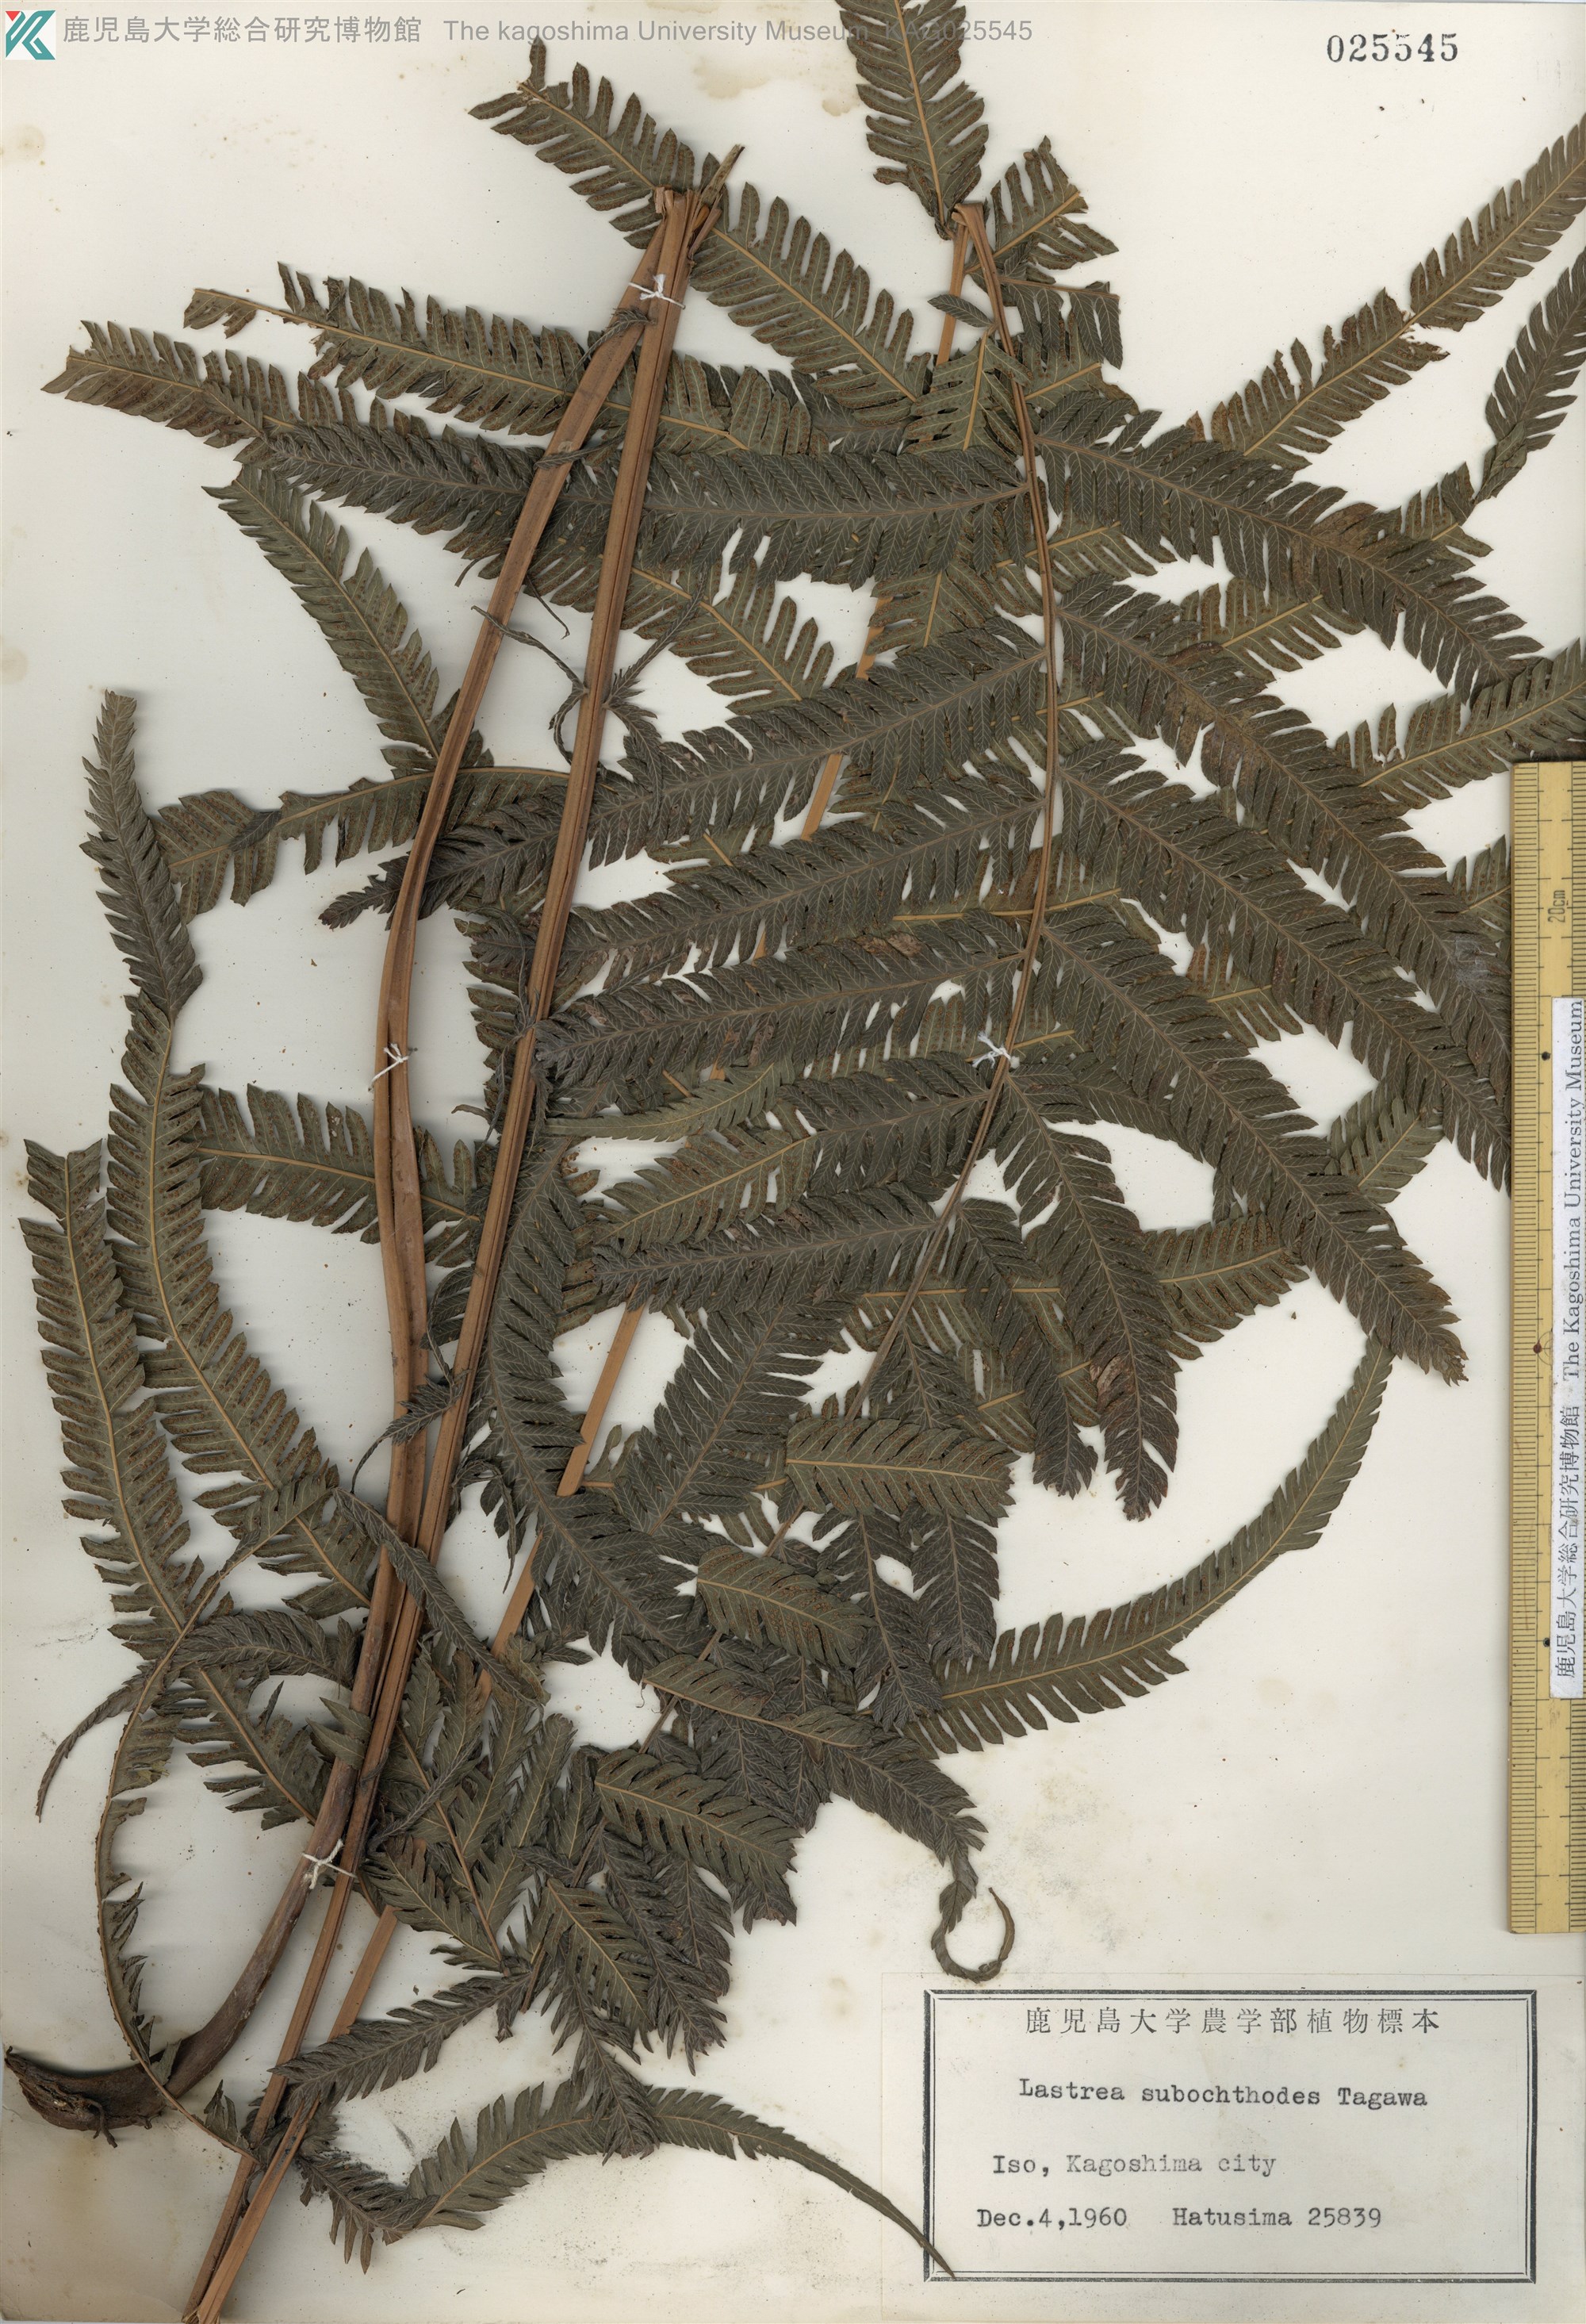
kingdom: Plantae
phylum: Tracheophyta
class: Polypodiopsida
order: Polypodiales
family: Thelypteridaceae
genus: Pseudocyclosorus
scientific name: Pseudocyclosorus esquirolii
